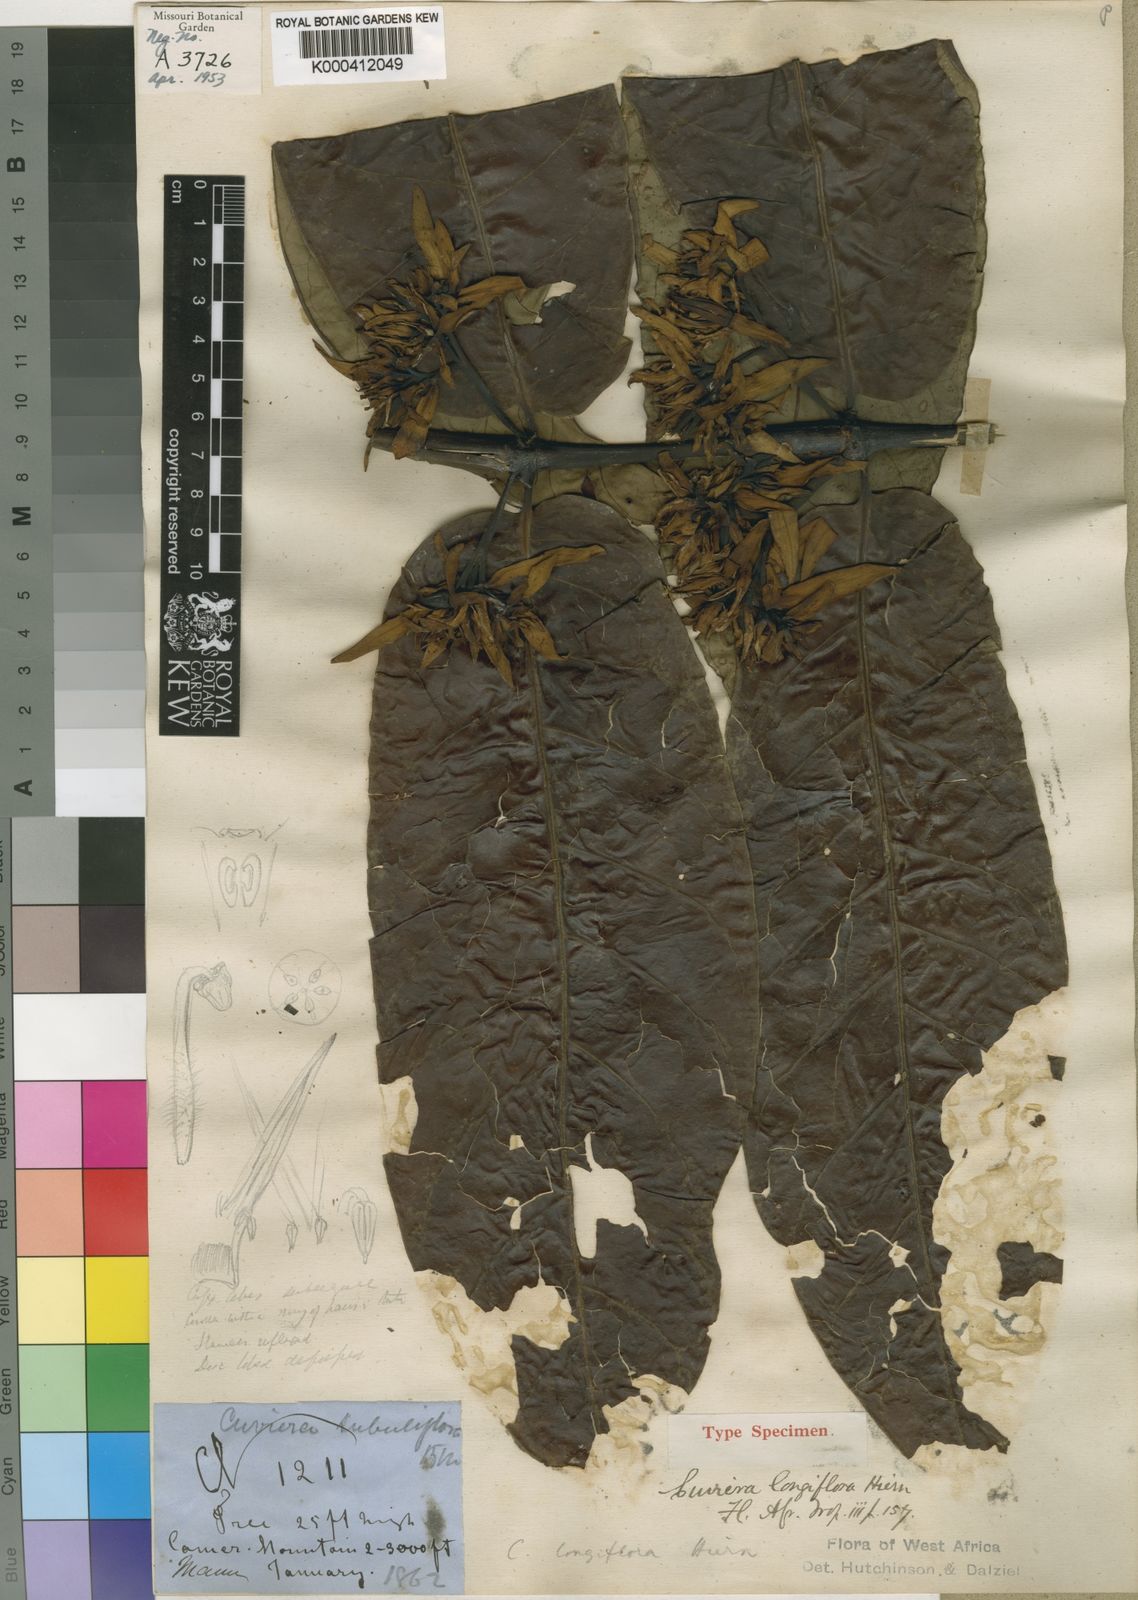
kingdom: Plantae
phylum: Tracheophyta
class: Magnoliopsida
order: Gentianales
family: Rubiaceae
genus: Cuviera
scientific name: Cuviera longiflora
